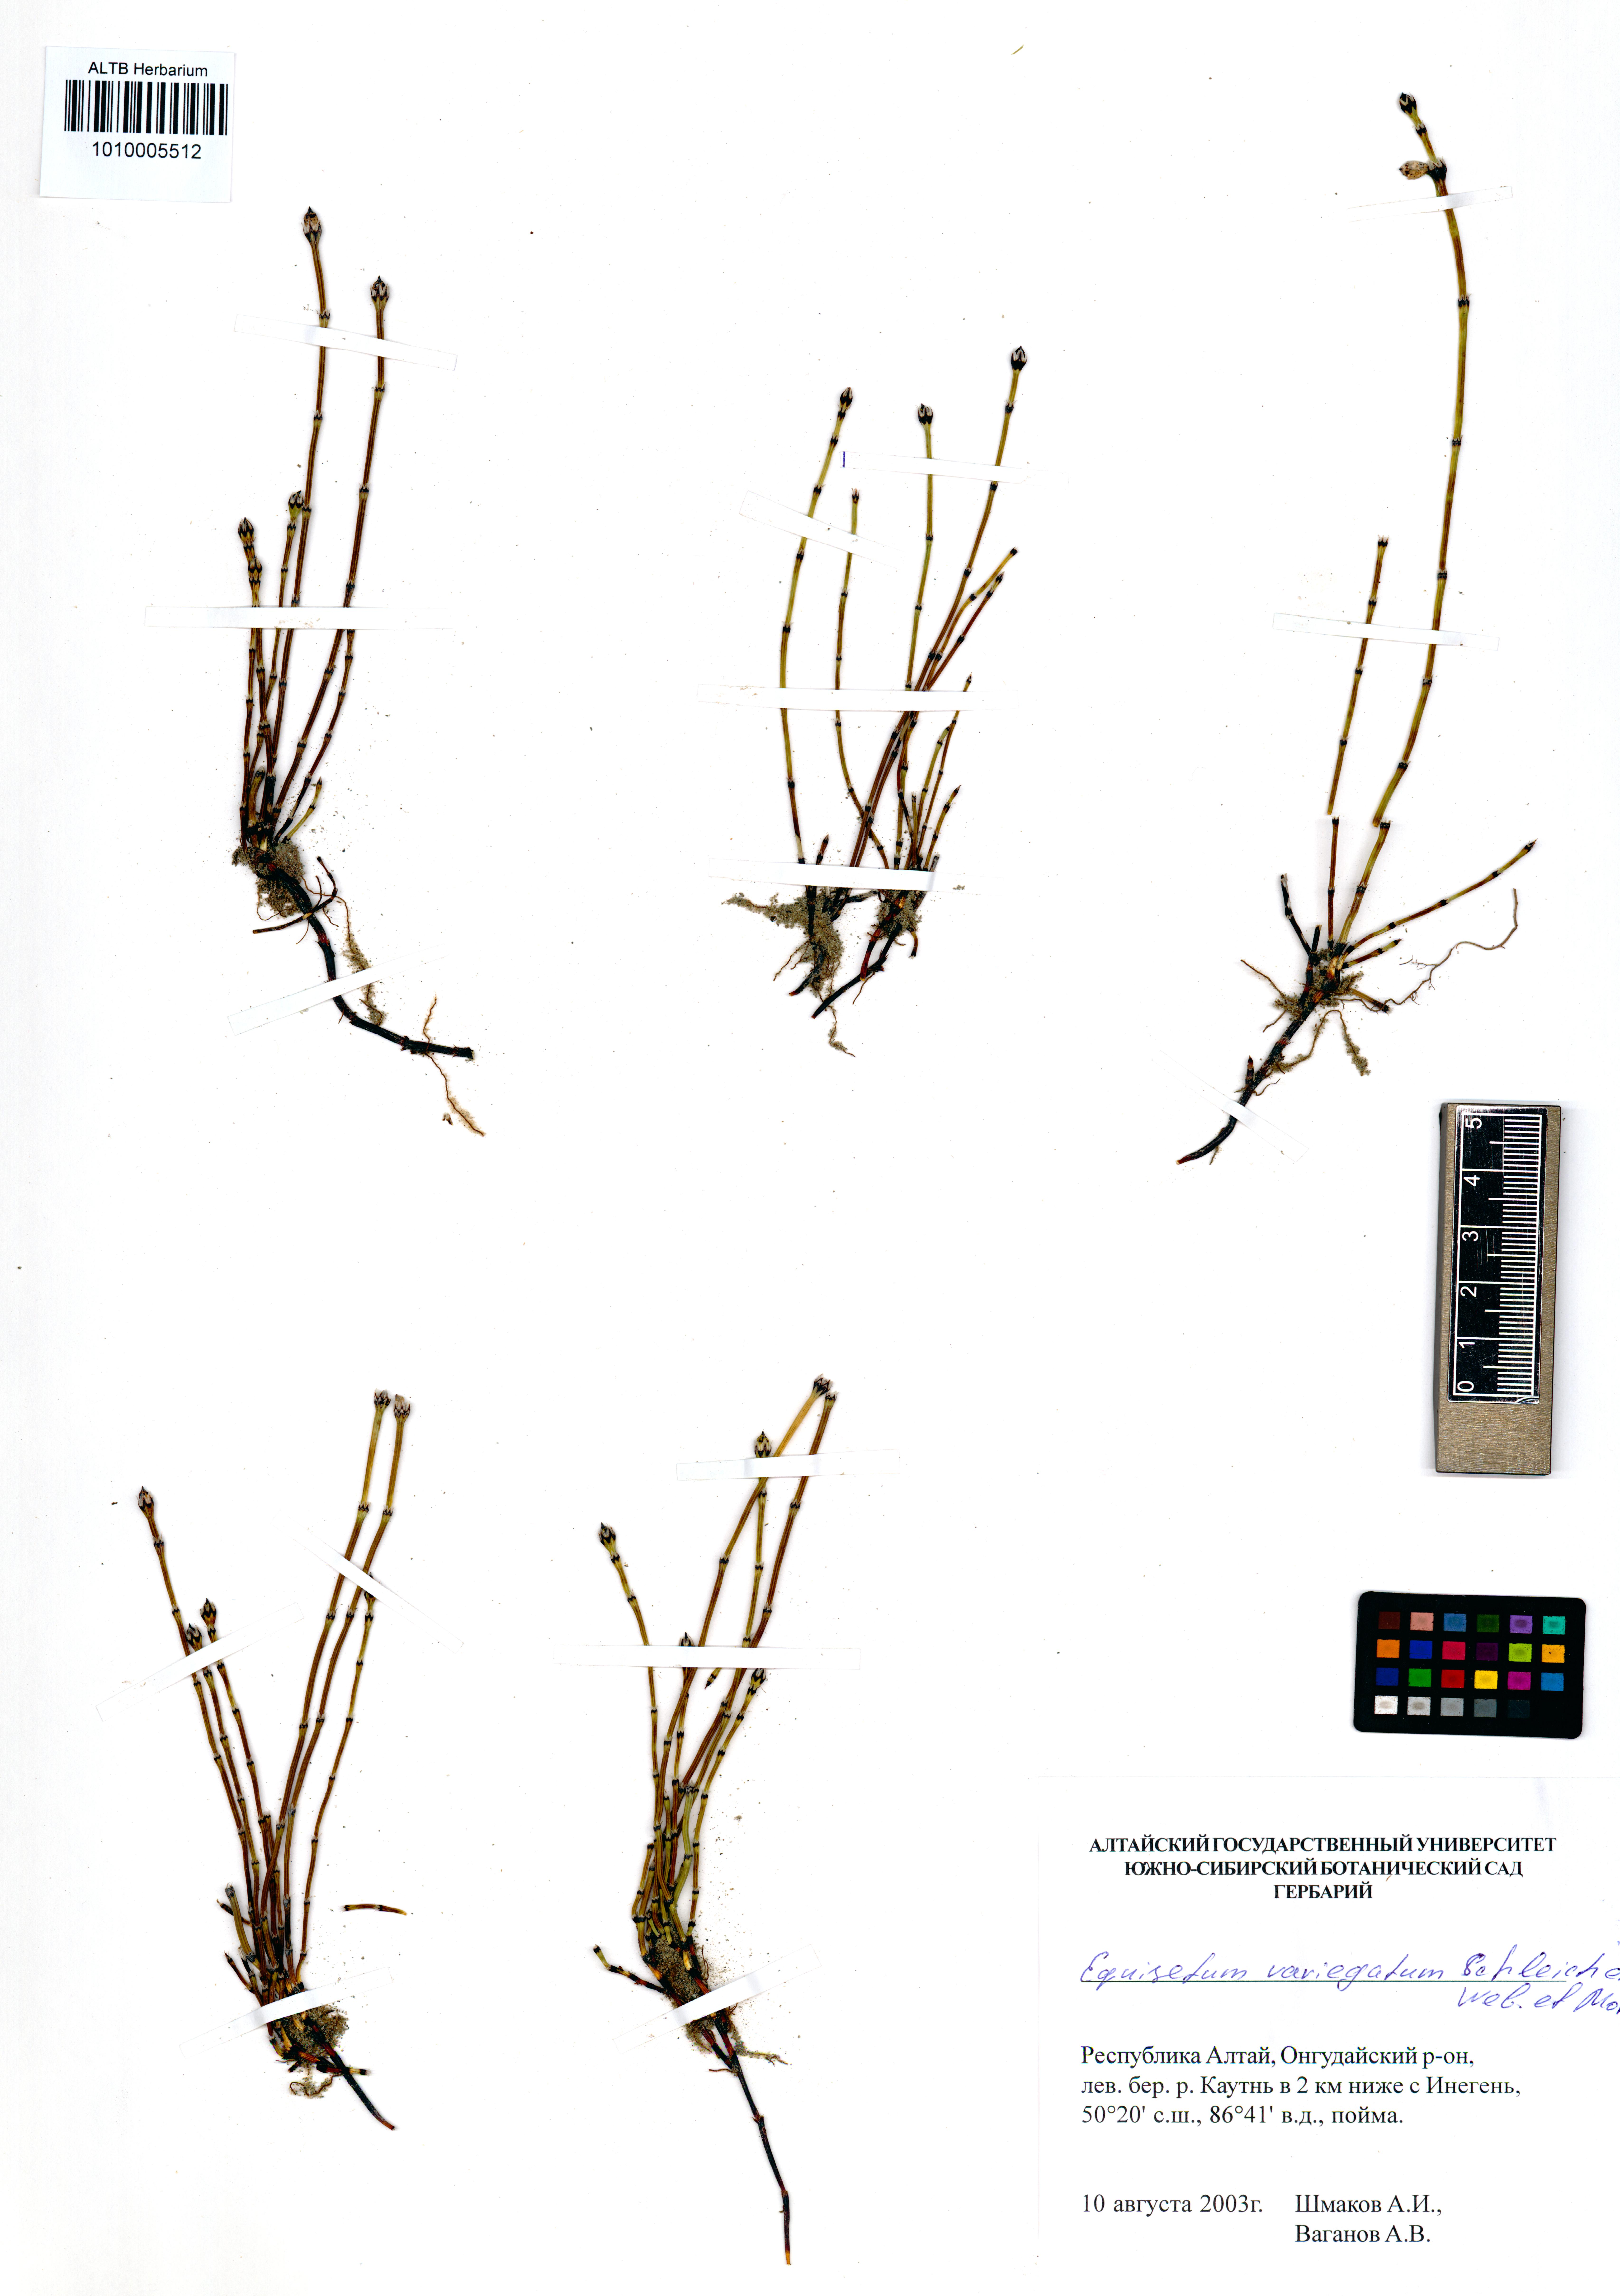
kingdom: Plantae
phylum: Tracheophyta
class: Polypodiopsida
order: Equisetales
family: Equisetaceae
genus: Equisetum
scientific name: Equisetum variegatum
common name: Variegated horsetail
